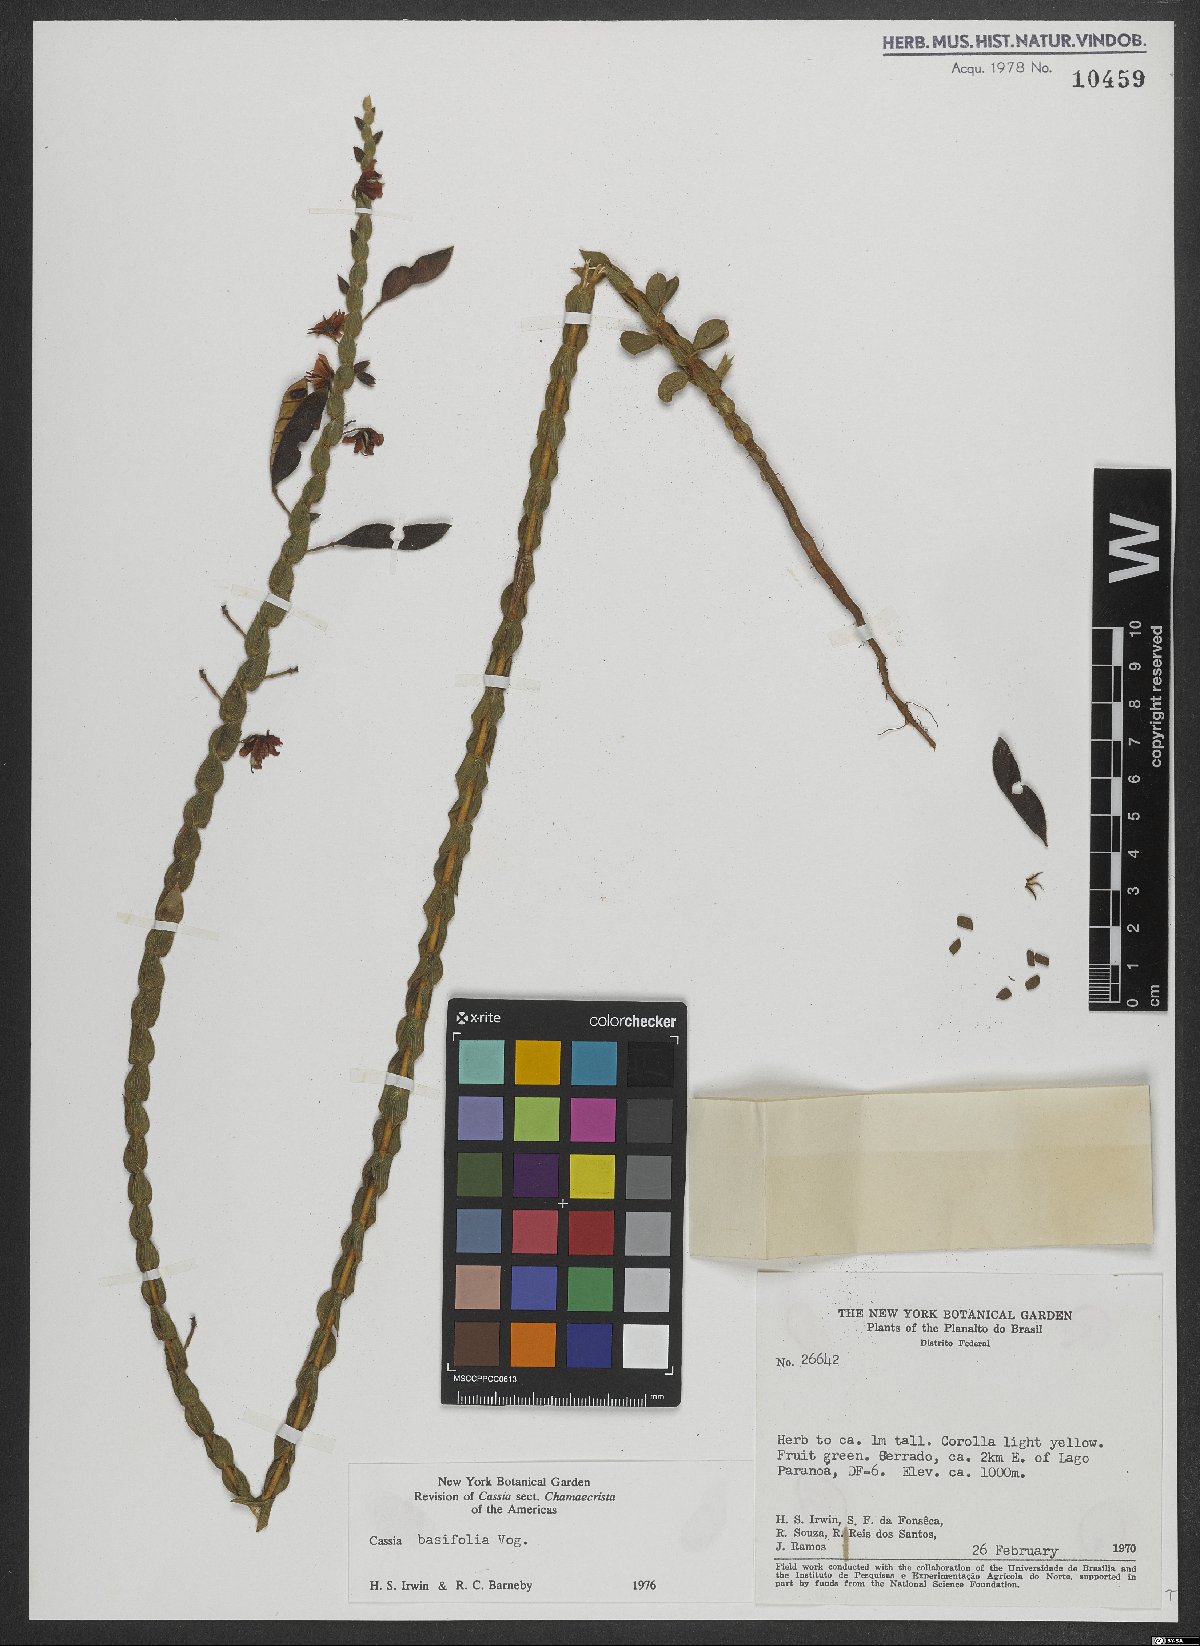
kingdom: Plantae
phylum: Tracheophyta
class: Magnoliopsida
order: Fabales
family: Fabaceae
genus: Chamaecrista
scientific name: Chamaecrista basifolia
